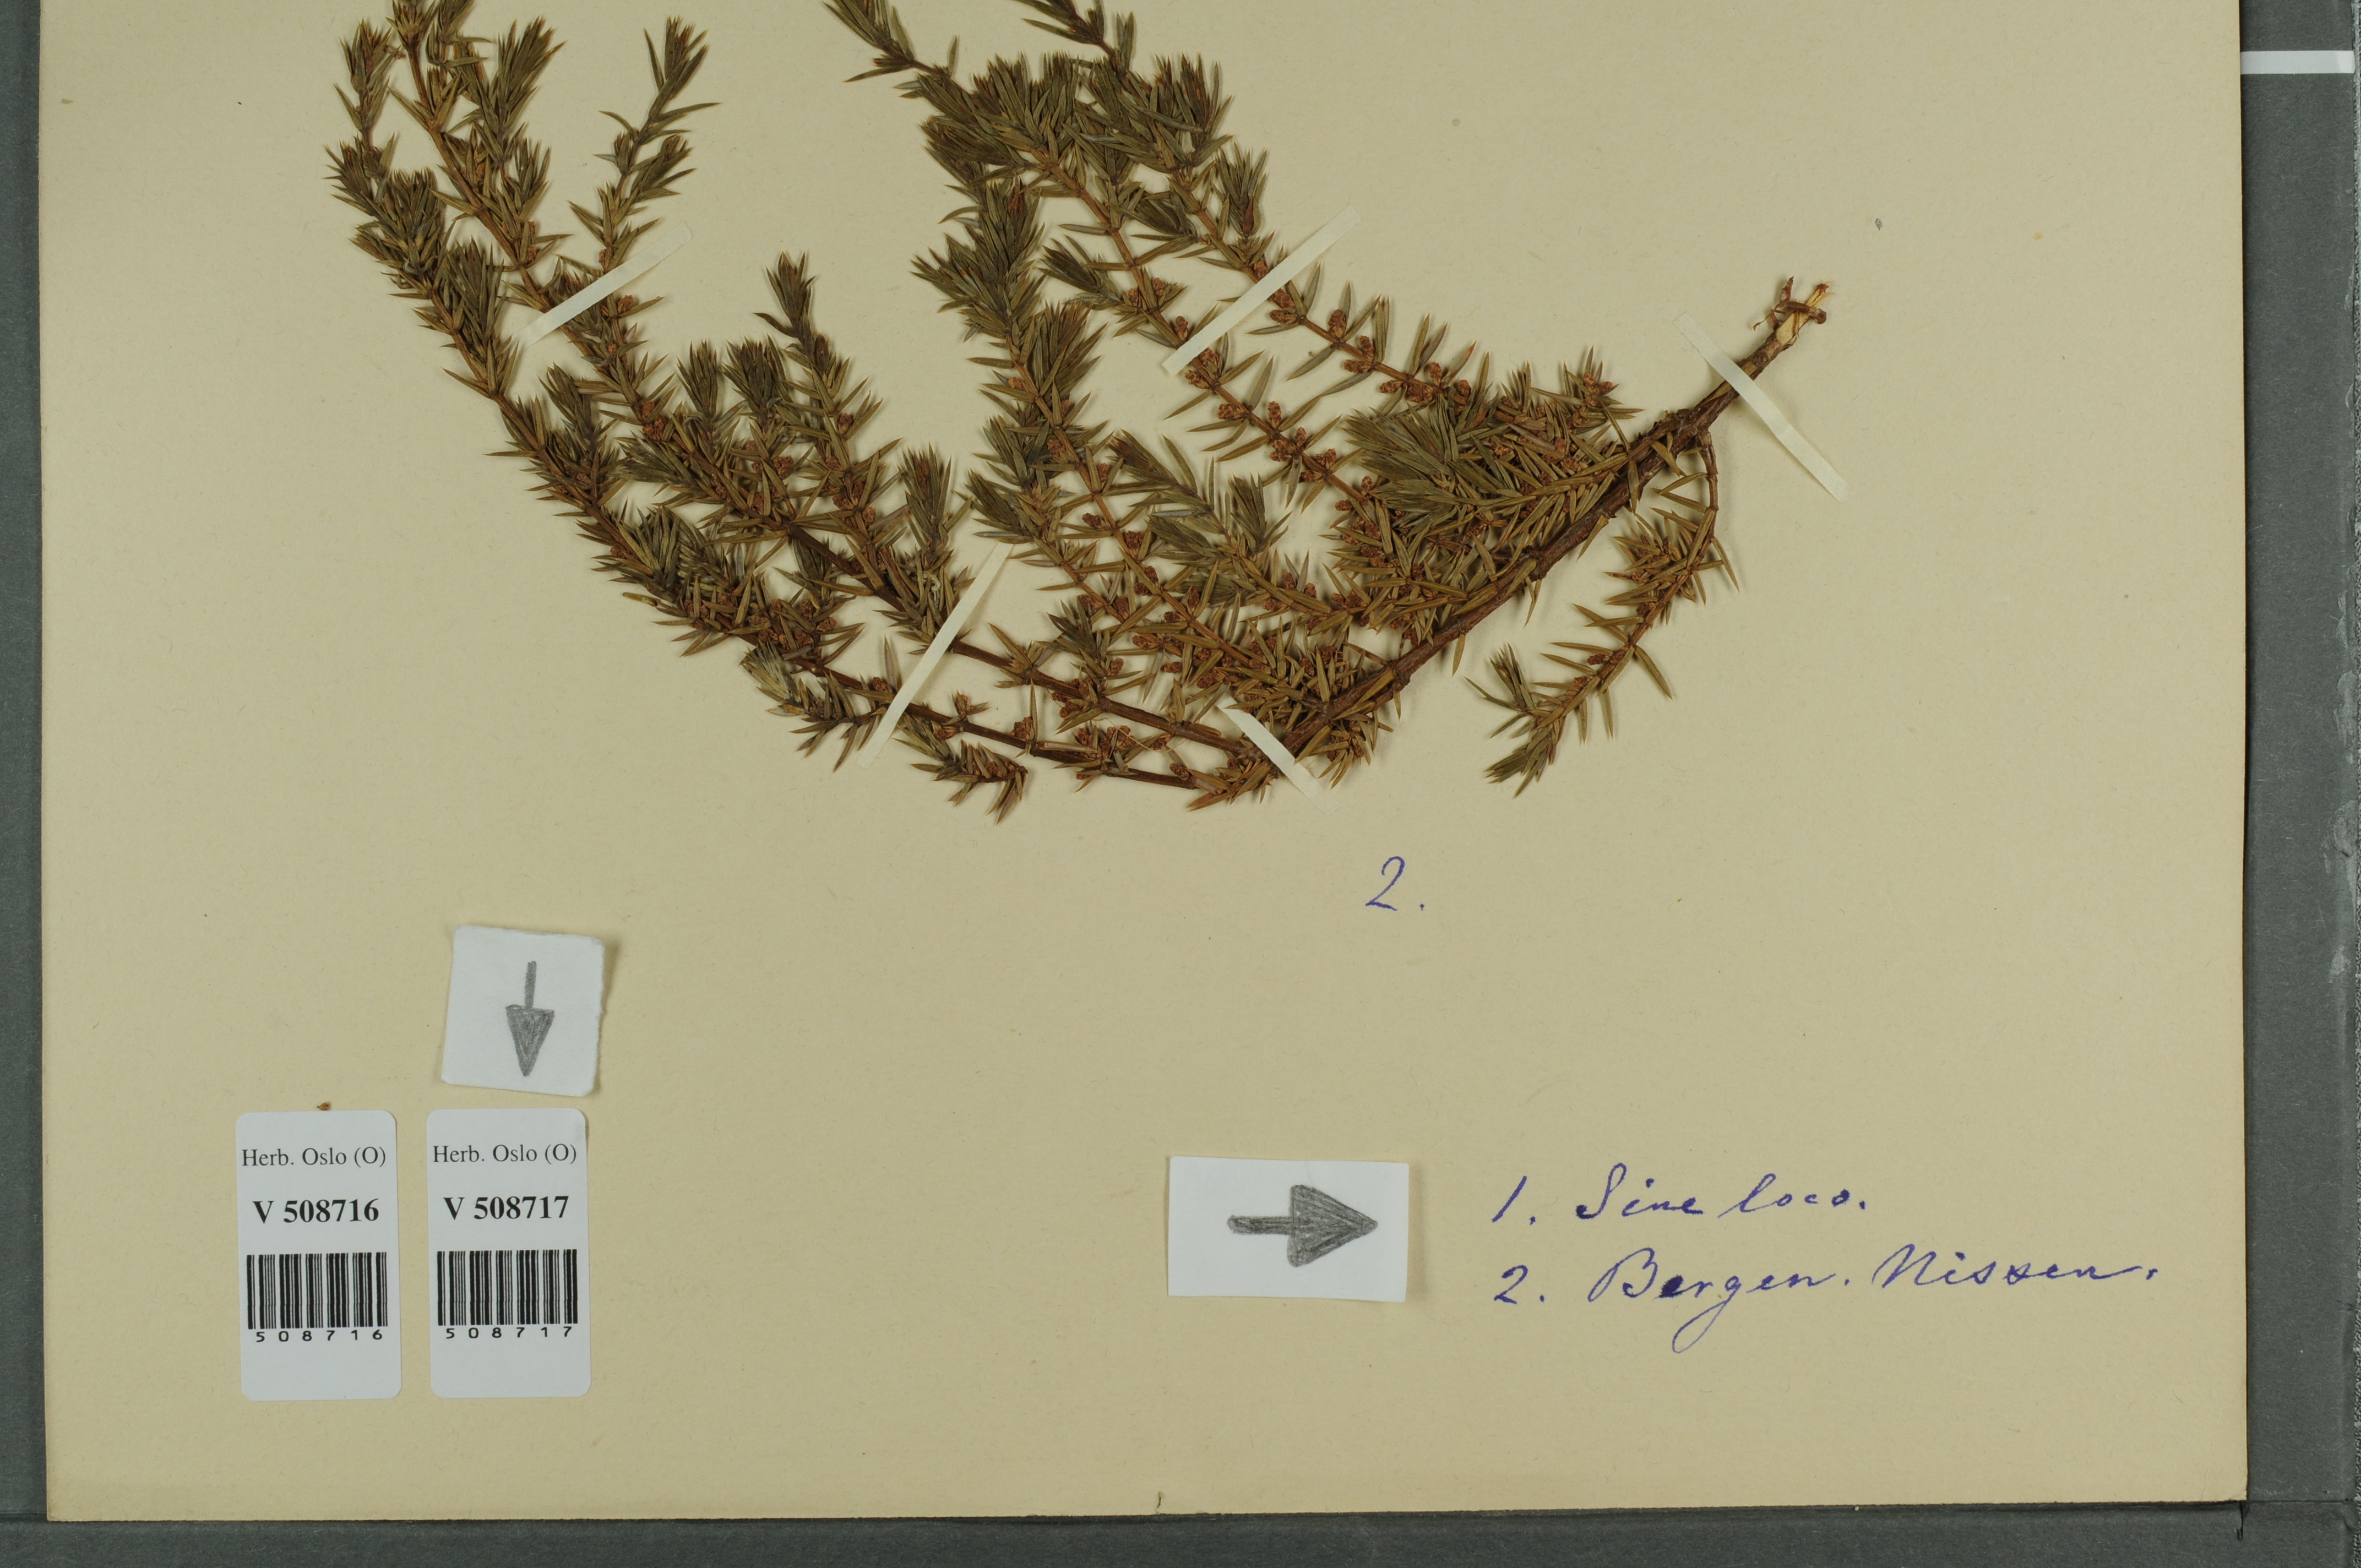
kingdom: Plantae
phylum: Tracheophyta
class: Pinopsida
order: Pinales
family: Cupressaceae
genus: Juniperus
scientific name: Juniperus communis
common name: Common juniper
